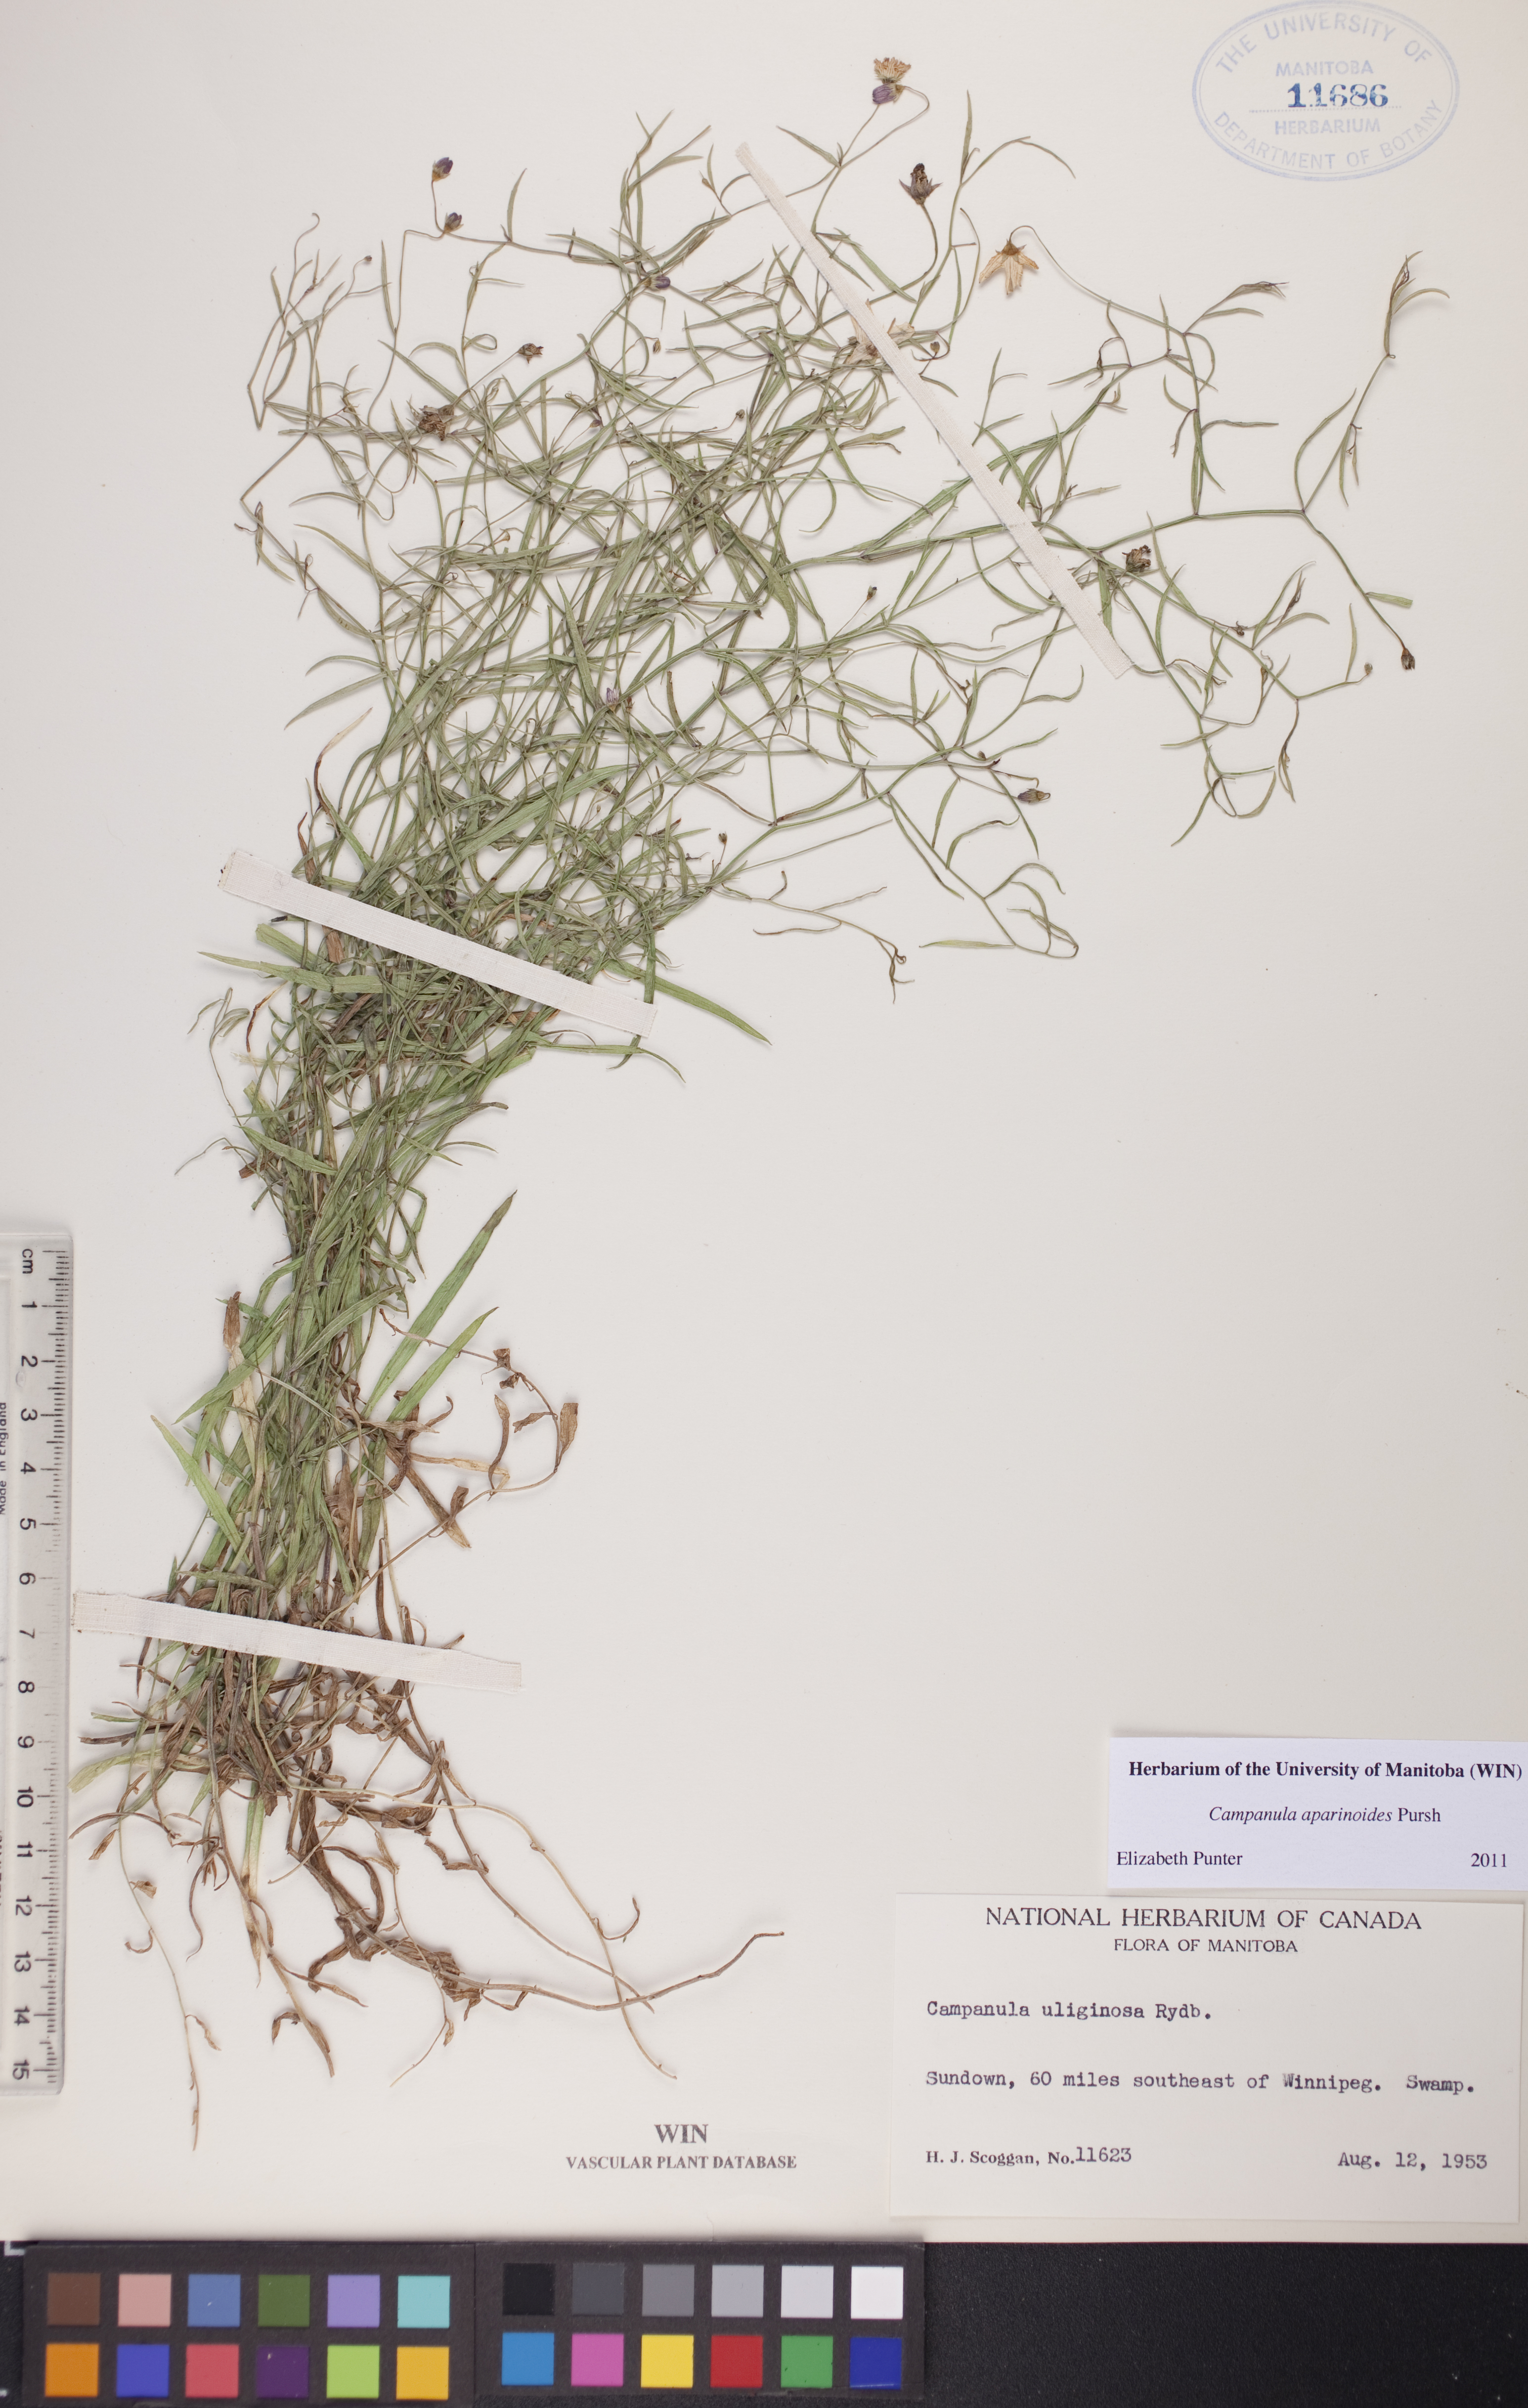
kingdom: Plantae
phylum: Tracheophyta
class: Magnoliopsida
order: Asterales
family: Campanulaceae
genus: Palustricodon
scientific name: Palustricodon aparinoides
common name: Bedstraw bellflower
